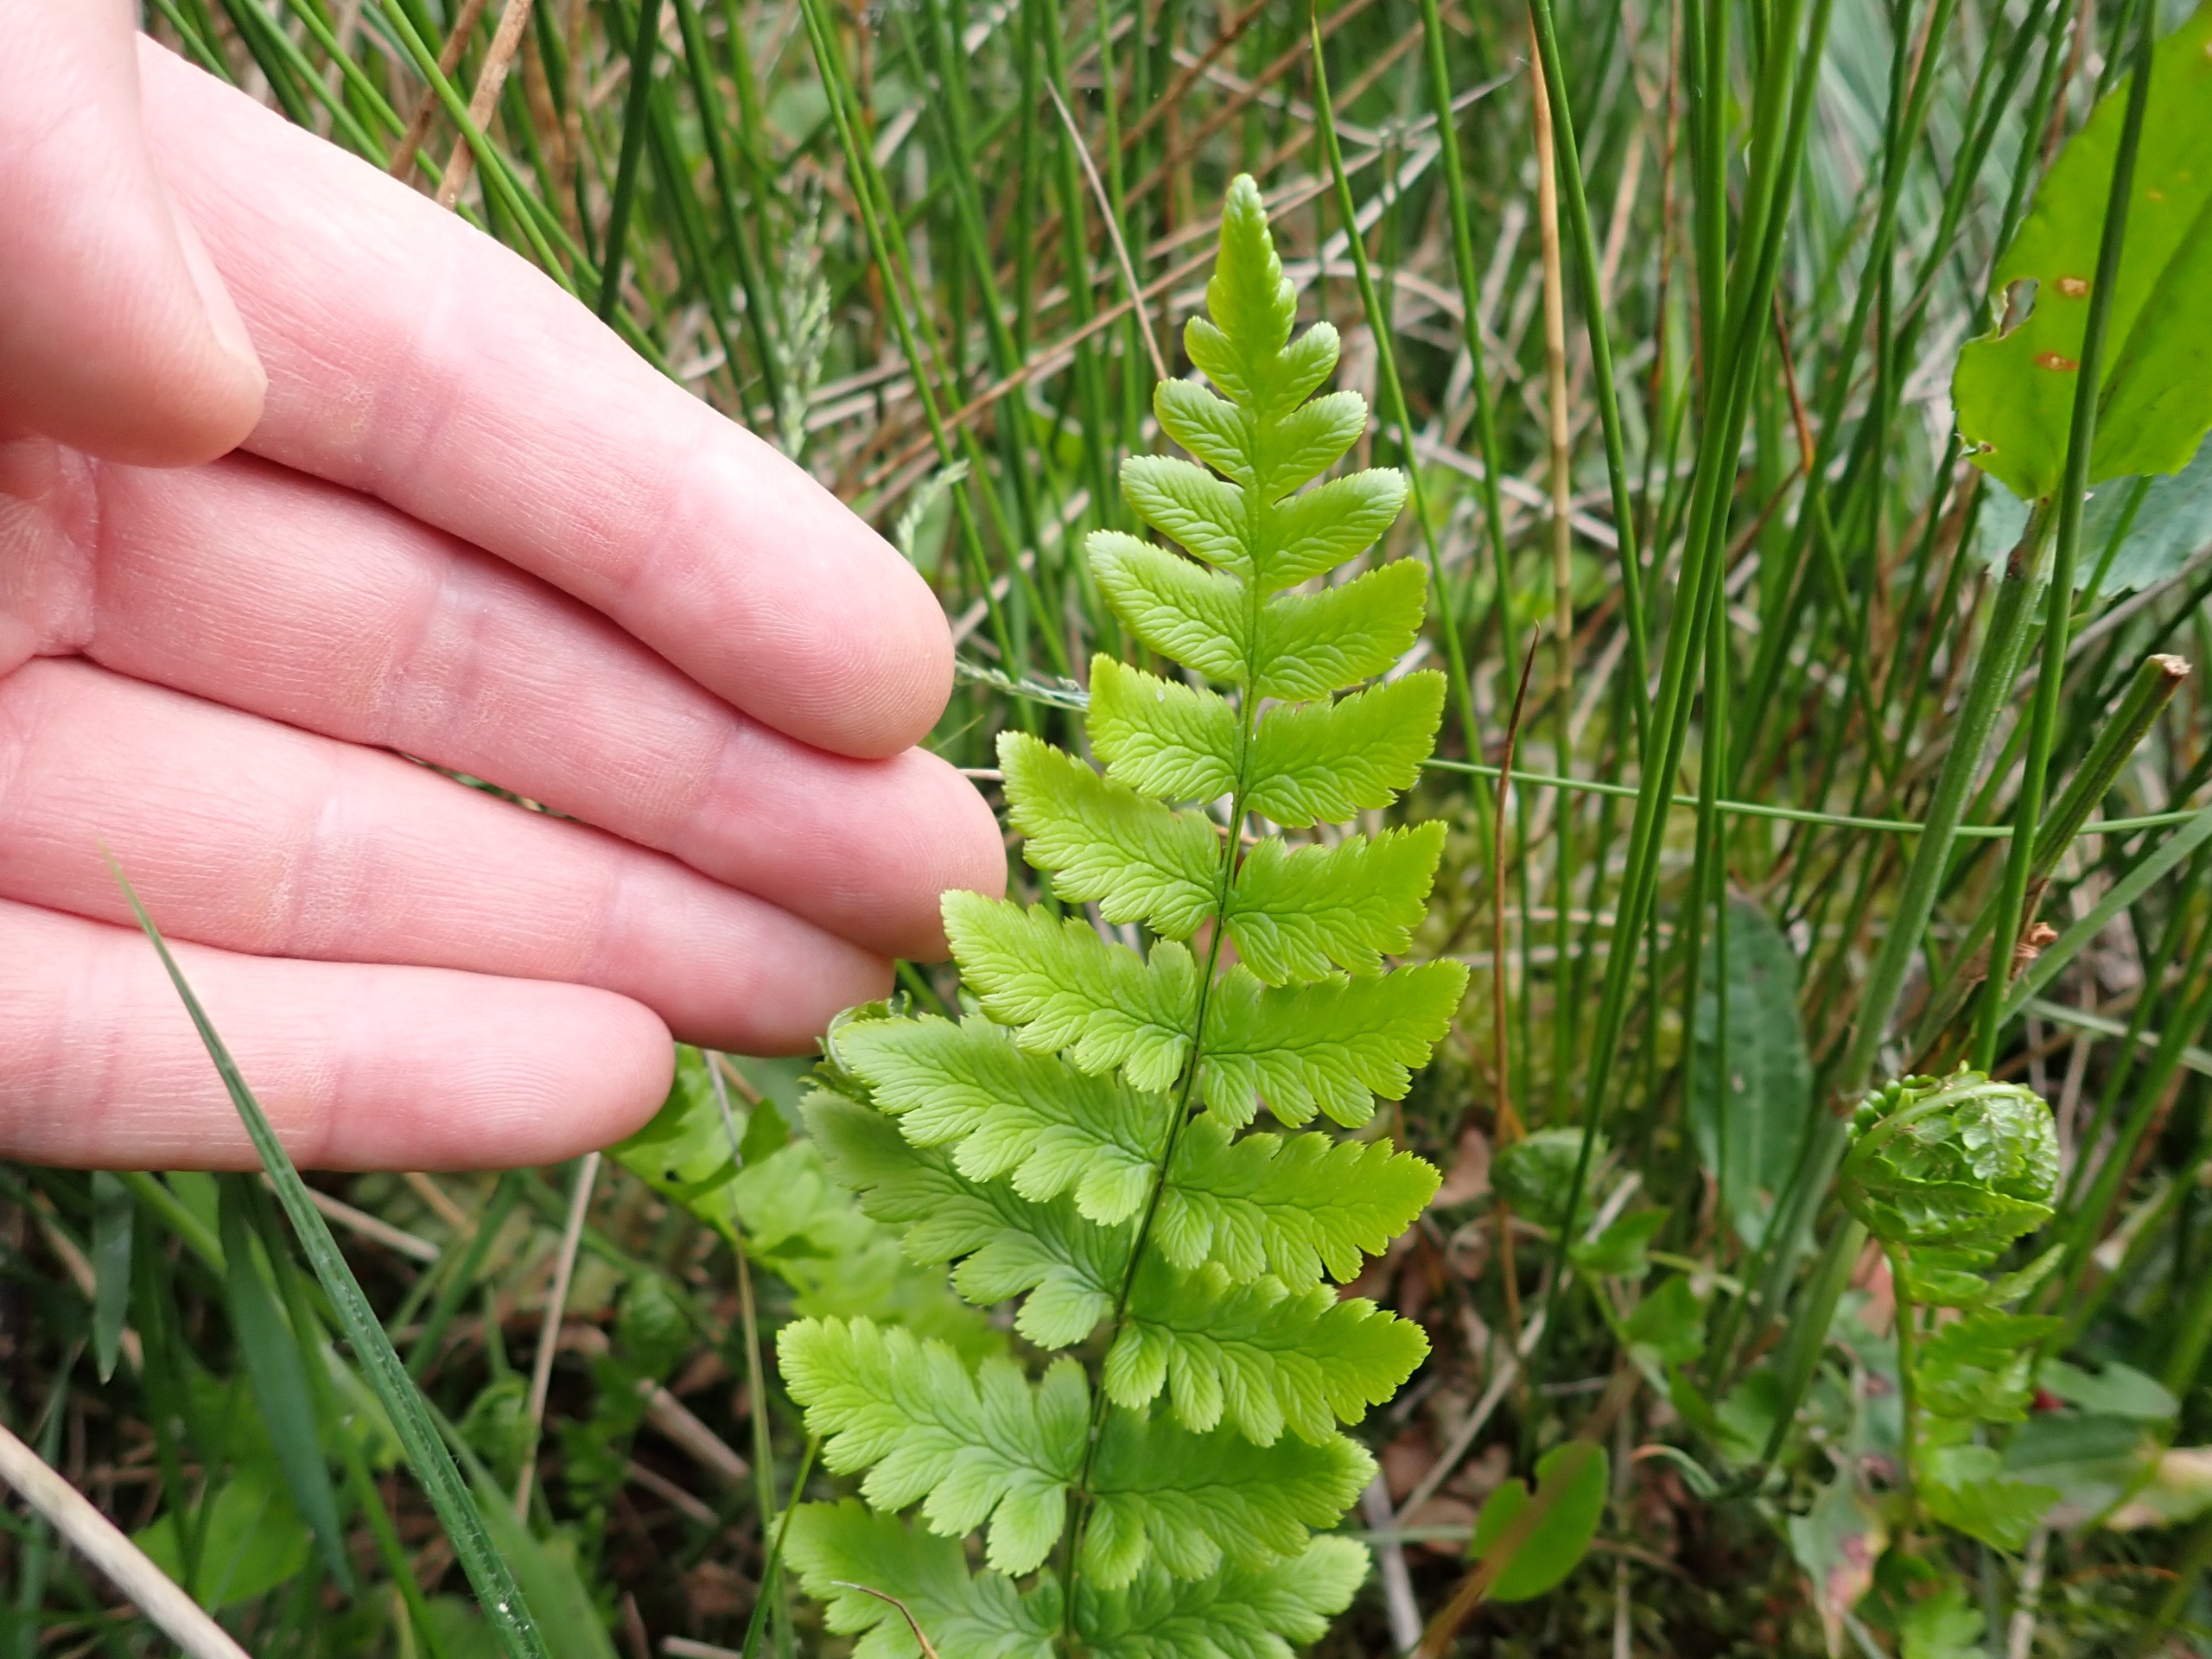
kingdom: Plantae
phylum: Tracheophyta
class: Polypodiopsida
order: Polypodiales
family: Dryopteridaceae
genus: Dryopteris
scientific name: Dryopteris cristata
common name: Butfinnet mangeløv
